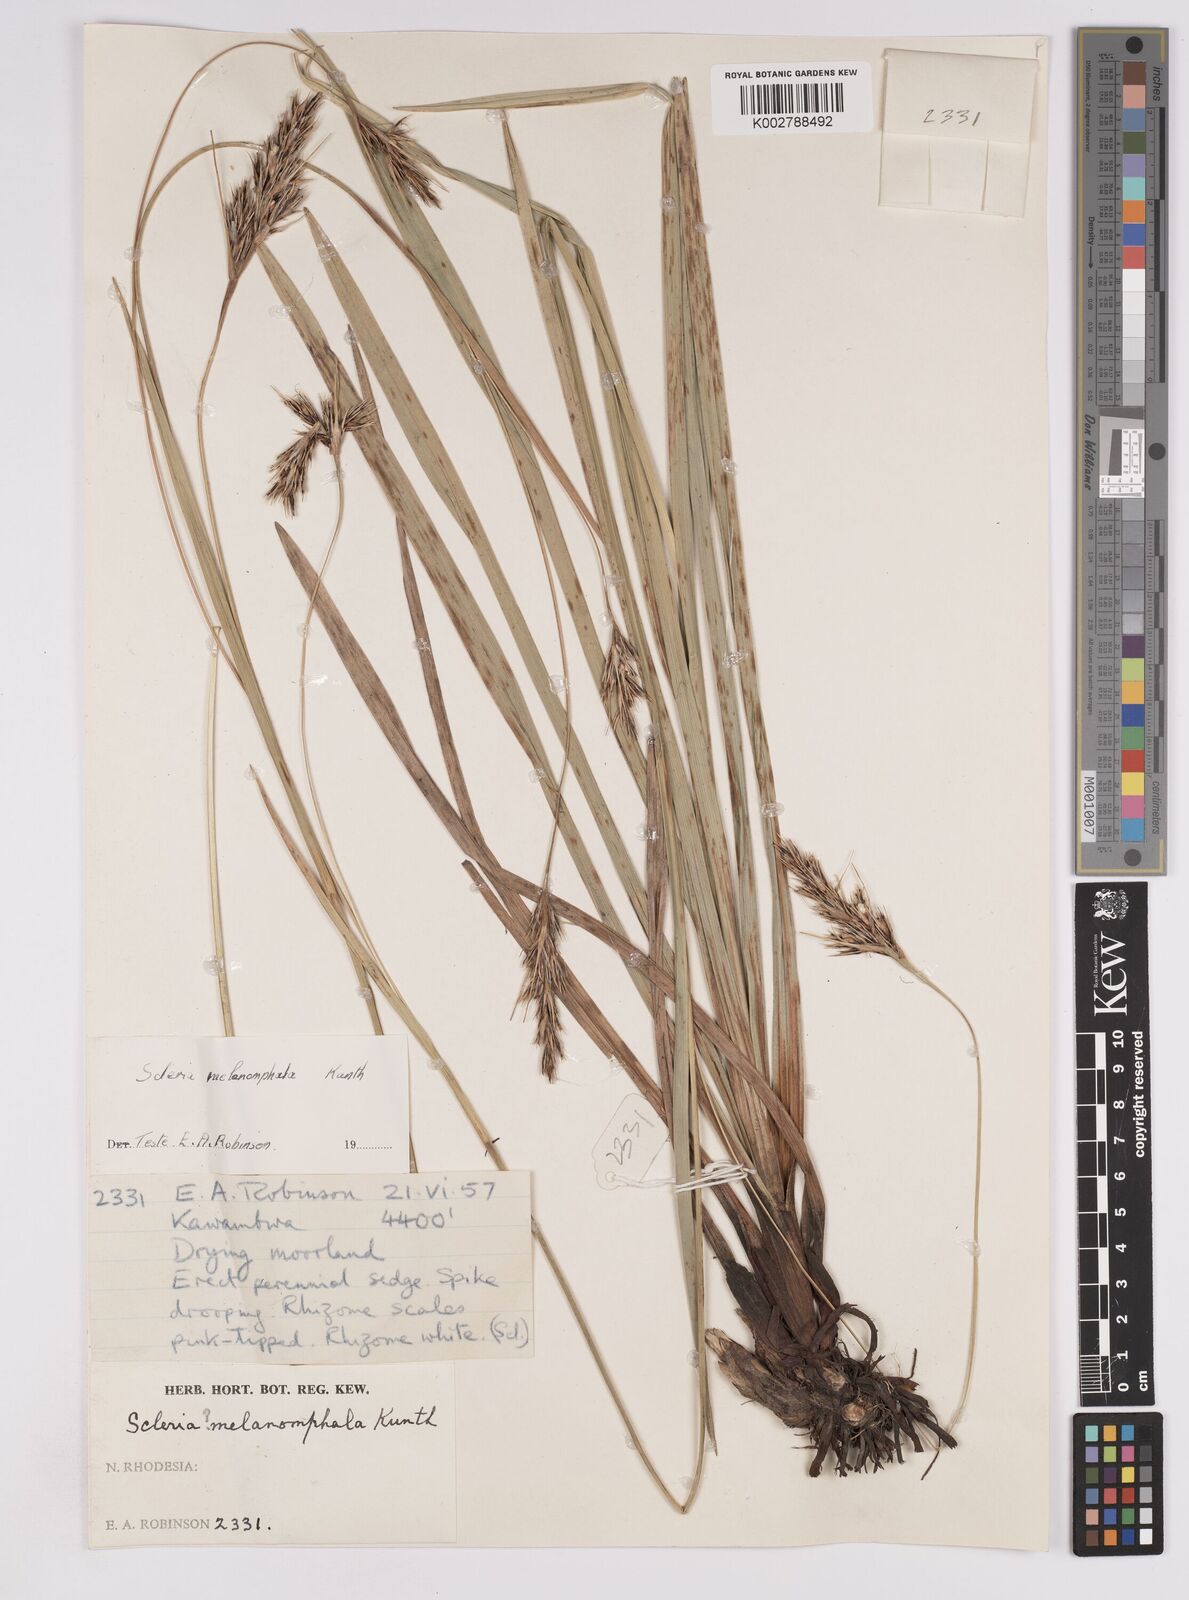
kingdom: Plantae
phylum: Tracheophyta
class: Liliopsida
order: Poales
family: Cyperaceae
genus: Scleria
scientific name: Scleria melanomphala
